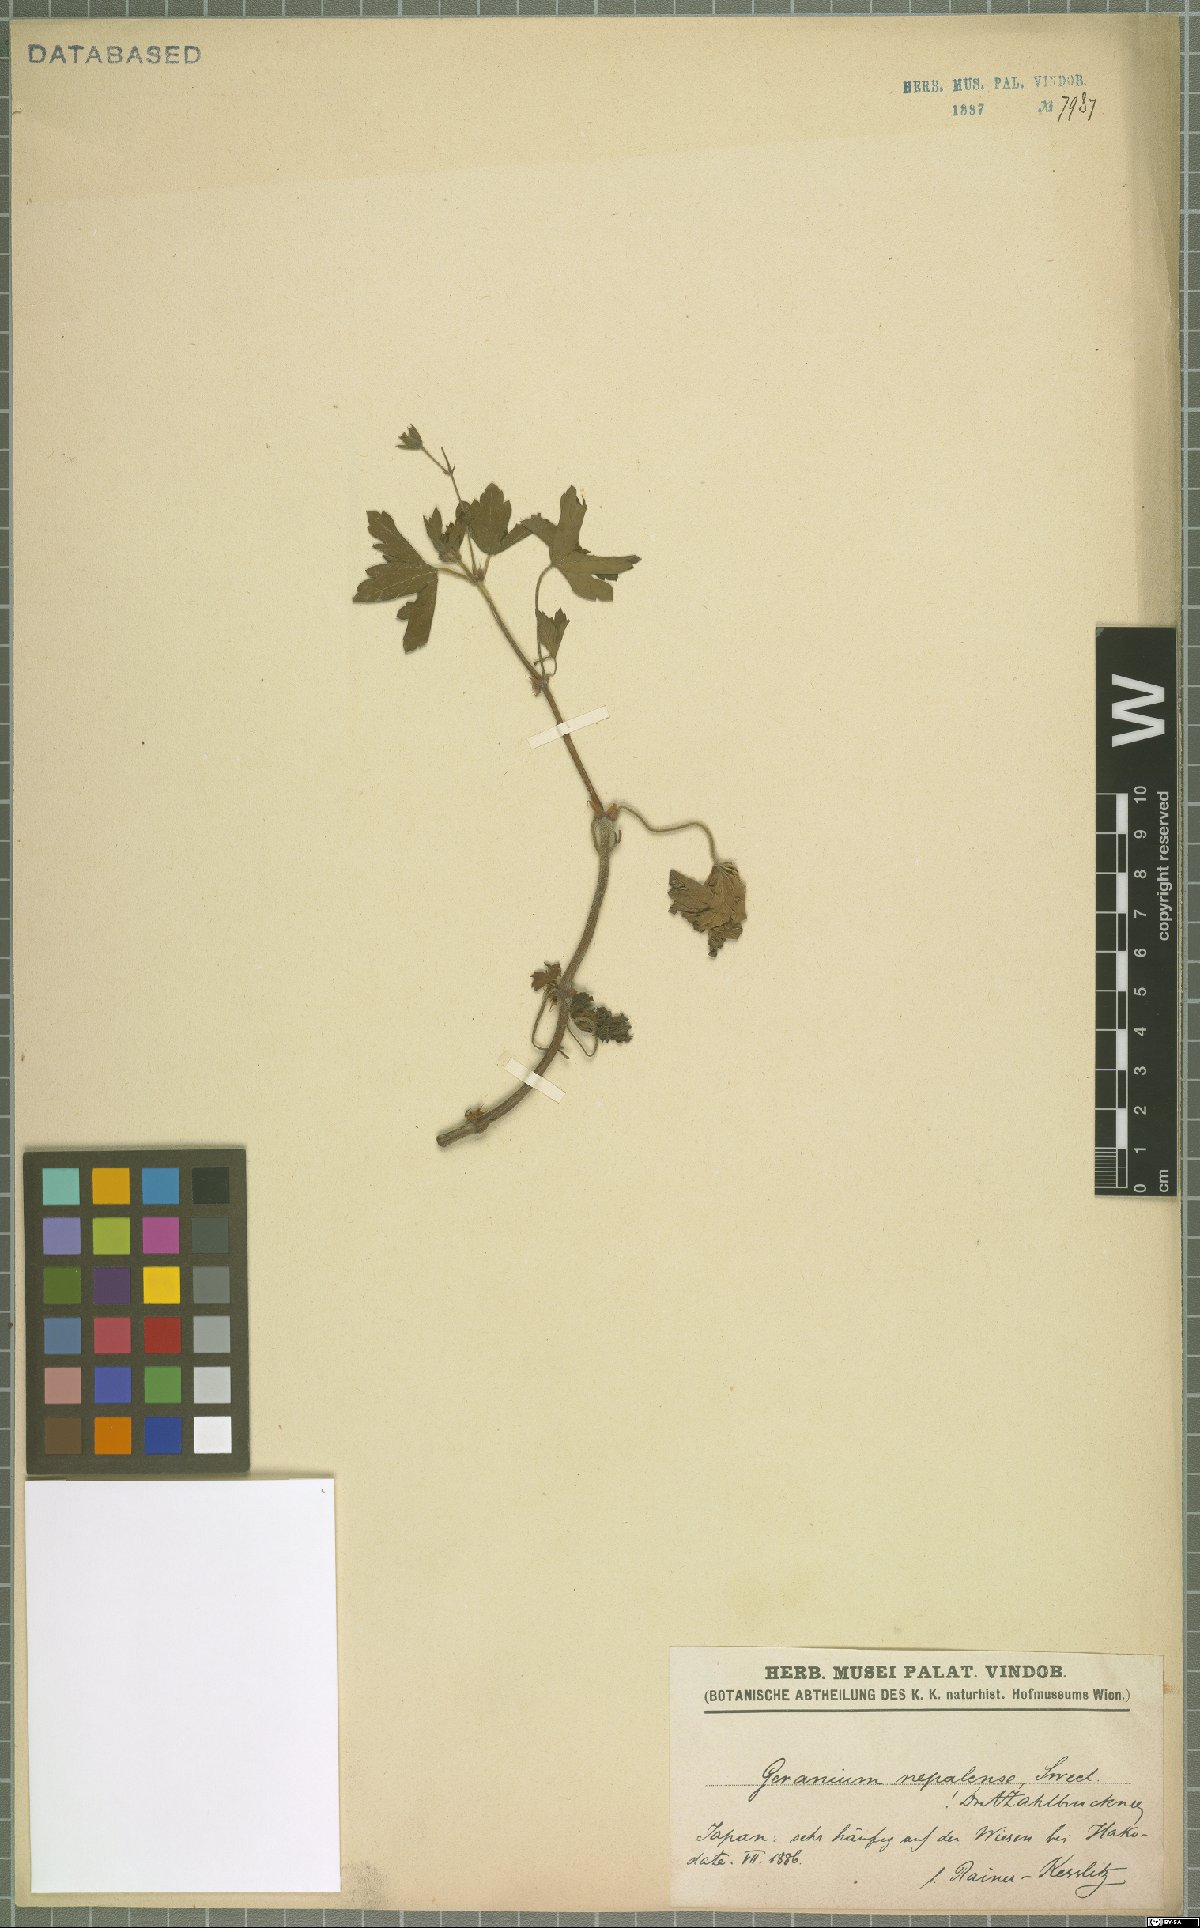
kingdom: Plantae
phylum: Tracheophyta
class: Magnoliopsida
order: Geraniales
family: Geraniaceae
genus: Geranium
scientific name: Geranium
